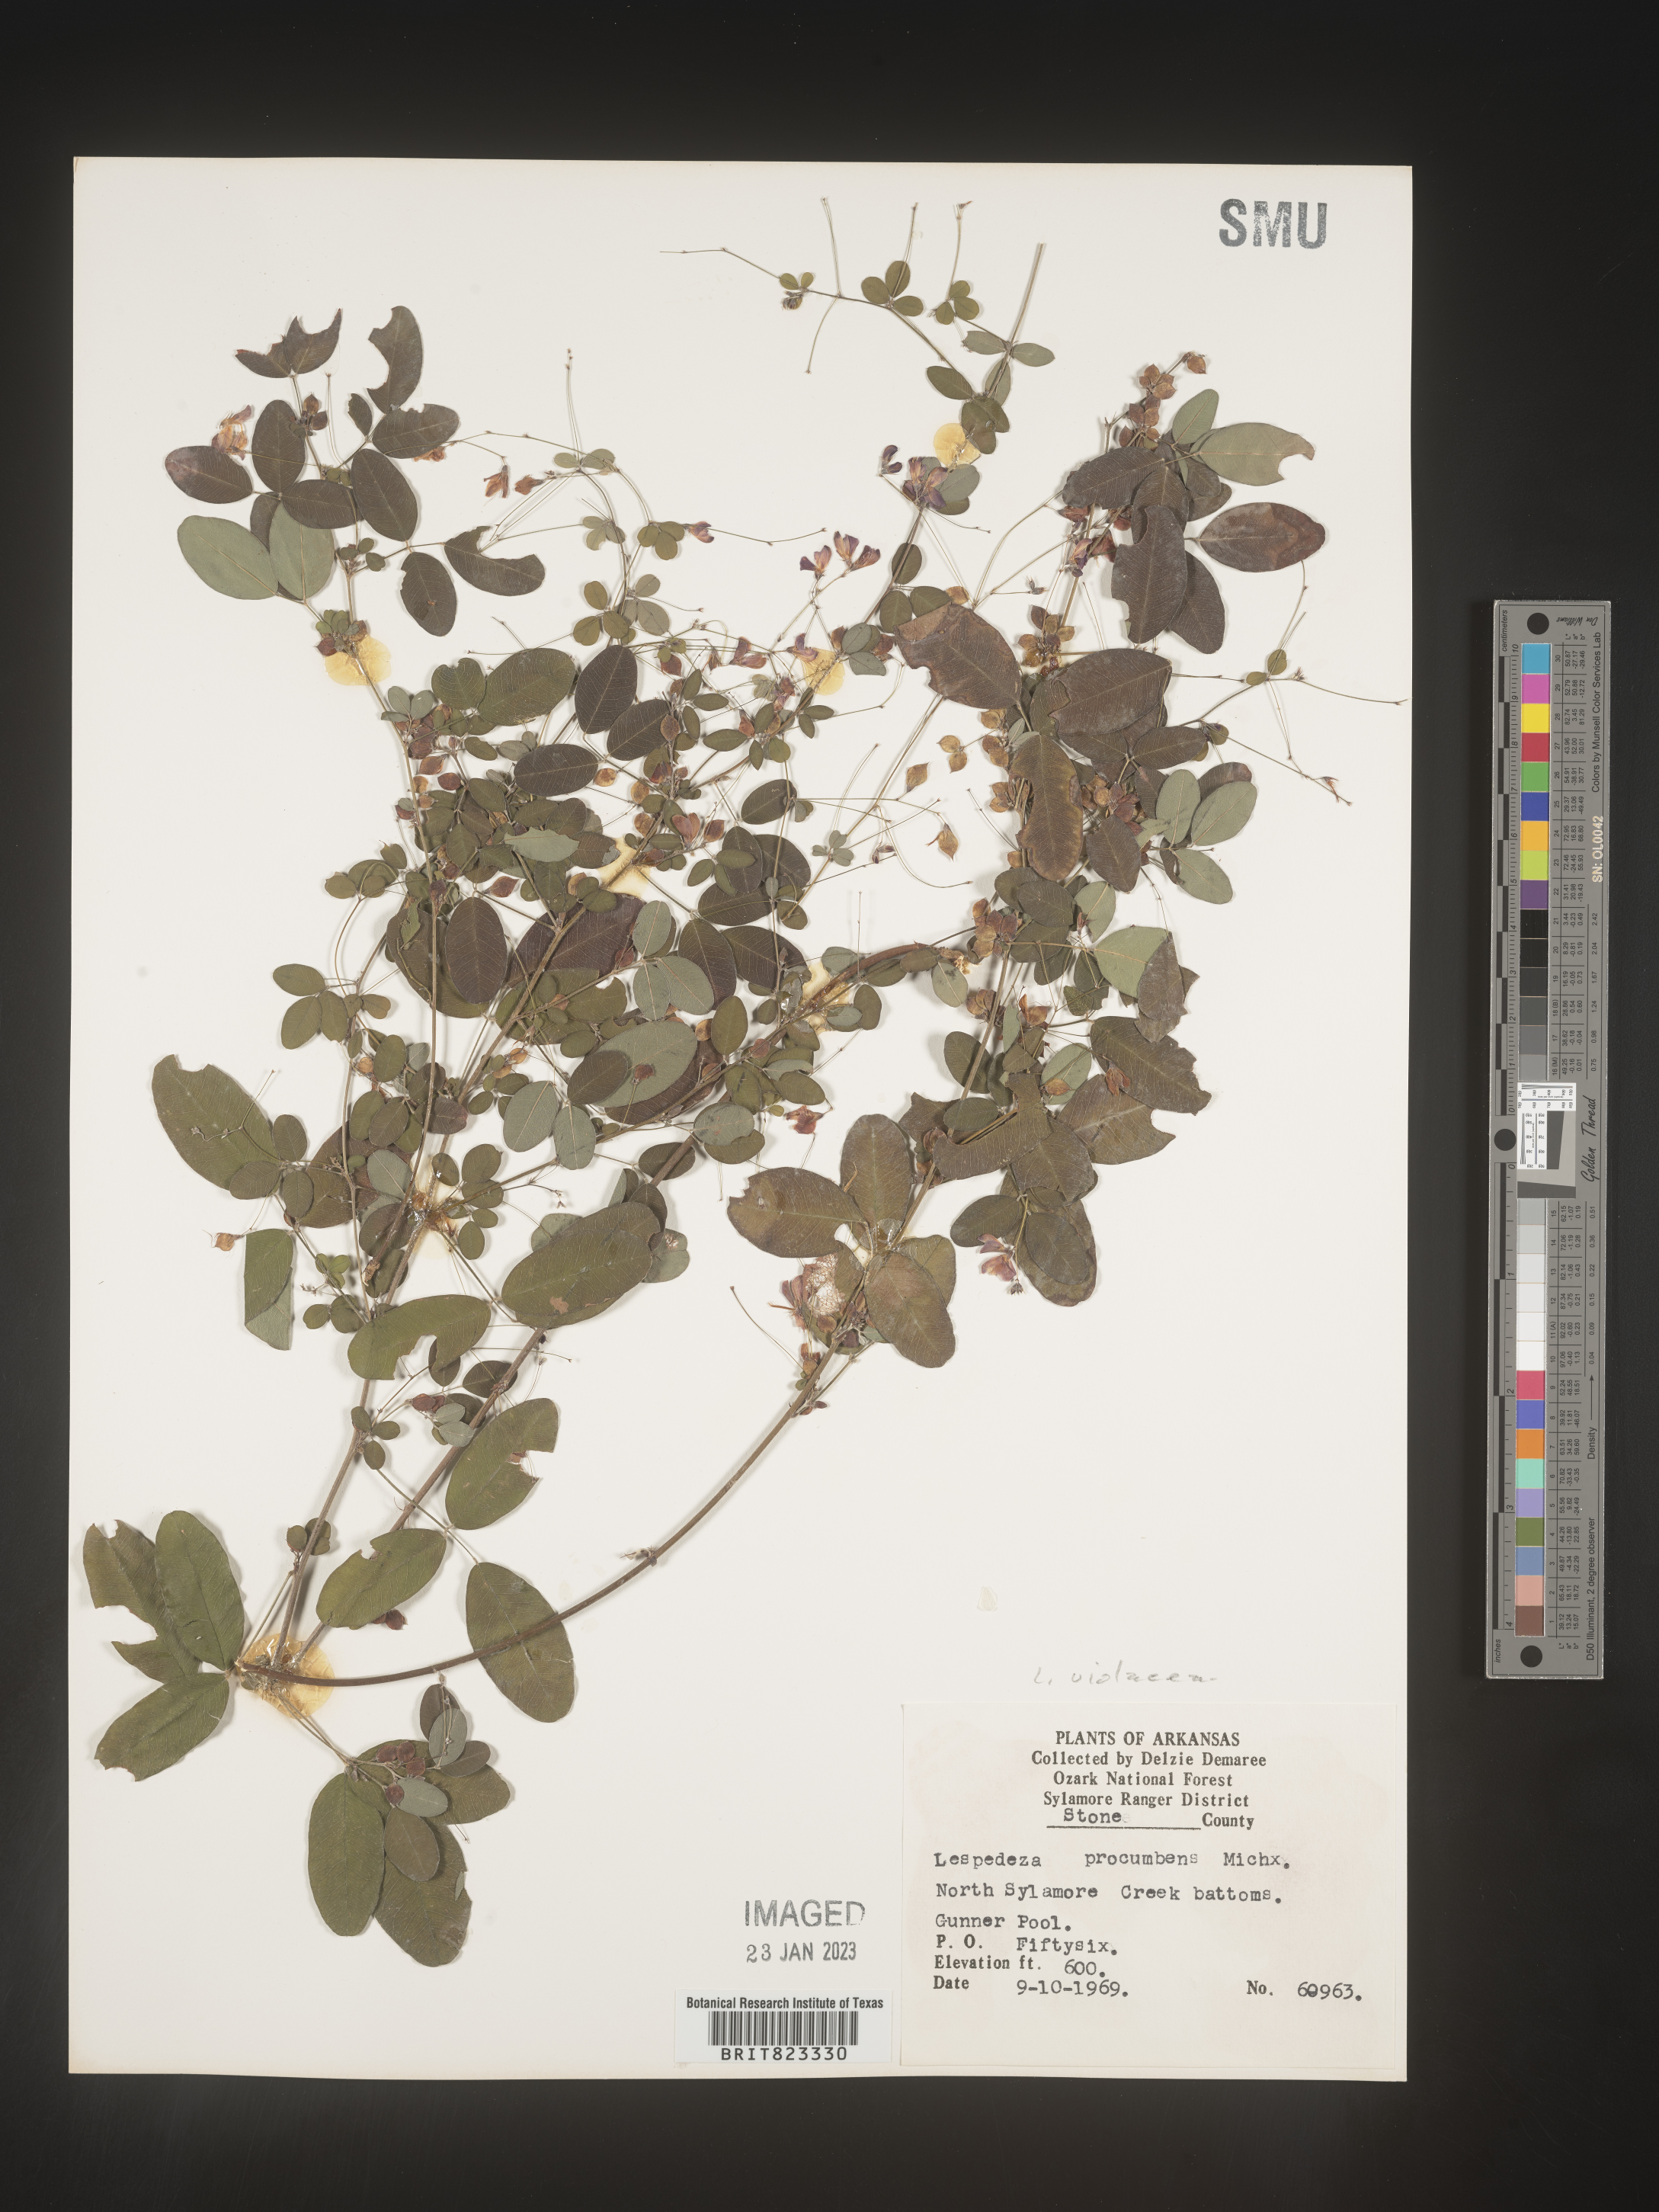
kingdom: Plantae
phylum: Tracheophyta
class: Magnoliopsida
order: Fabales
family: Fabaceae
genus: Lespedeza
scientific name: Lespedeza violacea
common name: Wand bush-clover
